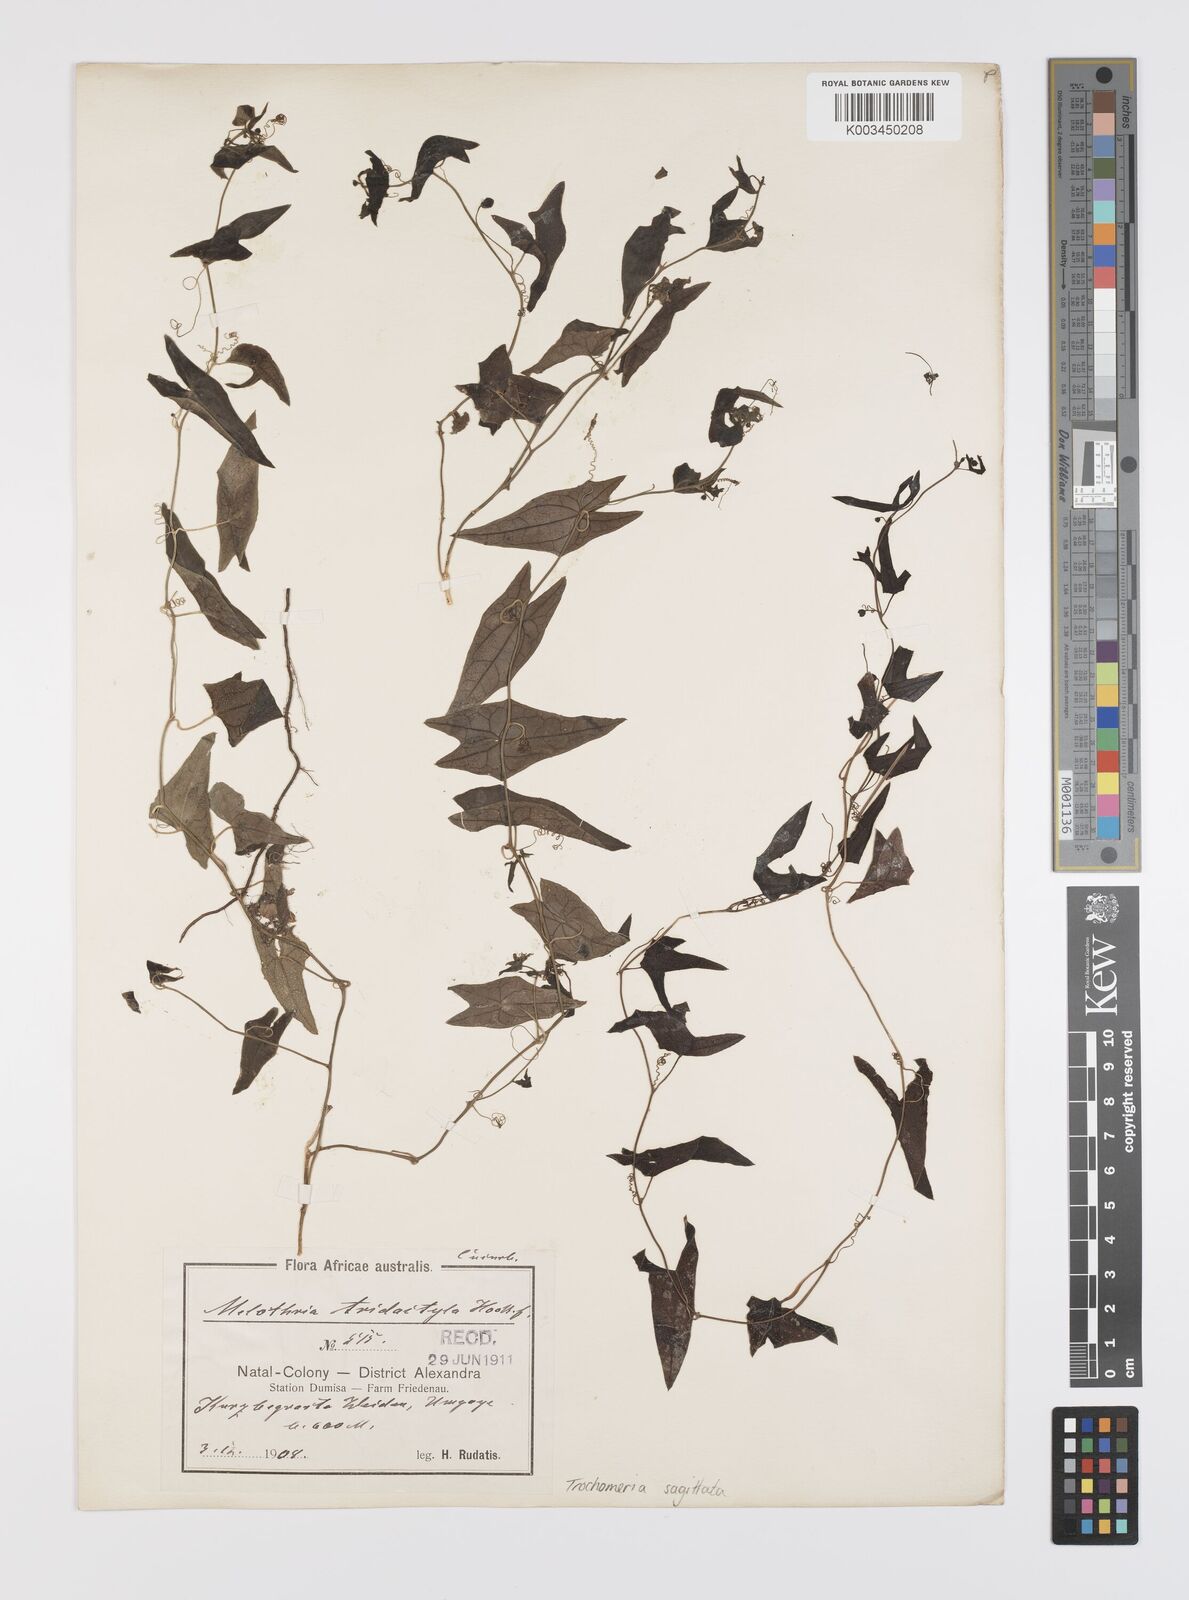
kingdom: Plantae
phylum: Tracheophyta
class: Magnoliopsida
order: Cucurbitales
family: Cucurbitaceae
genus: Trochomeria
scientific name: Trochomeria sagittata
